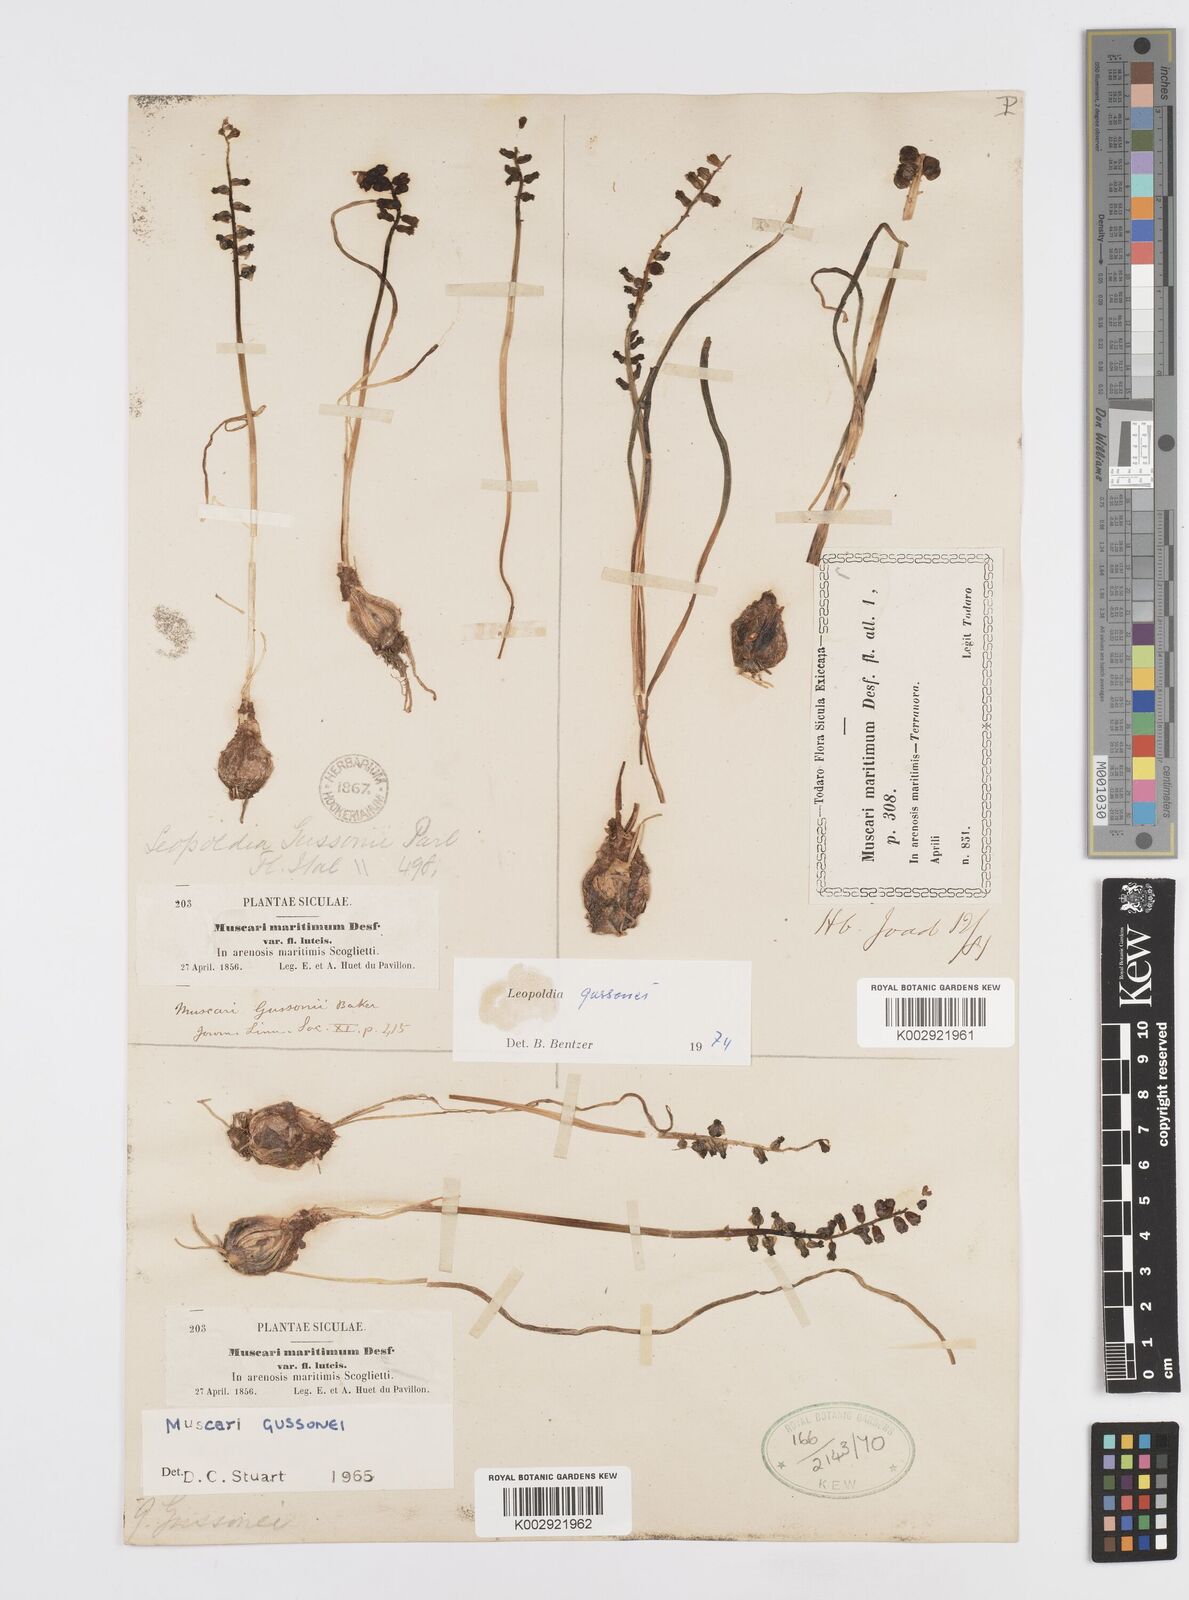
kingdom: Plantae
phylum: Tracheophyta
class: Liliopsida
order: Asparagales
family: Asparagaceae
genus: Muscari
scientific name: Muscari gussonei
